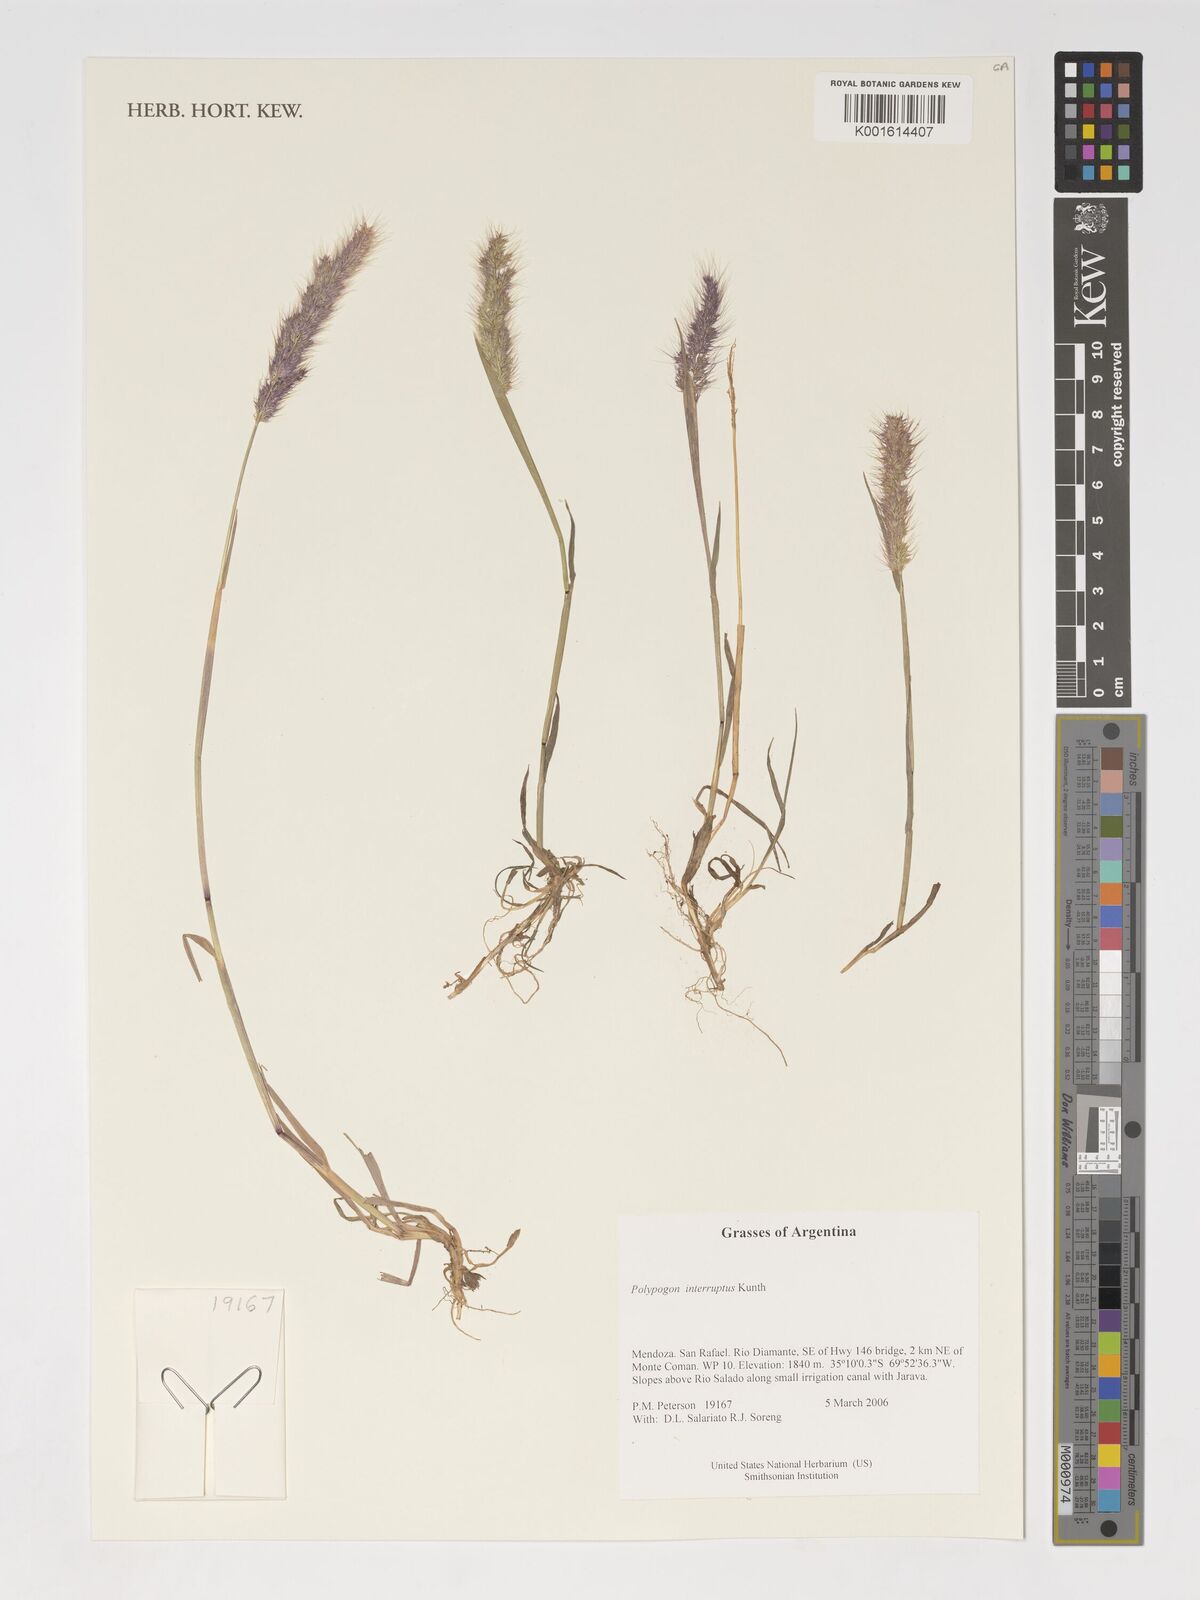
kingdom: Plantae
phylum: Tracheophyta
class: Liliopsida
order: Poales
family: Poaceae
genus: Polypogon
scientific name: Polypogon interruptus
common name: Ditch polypogon
